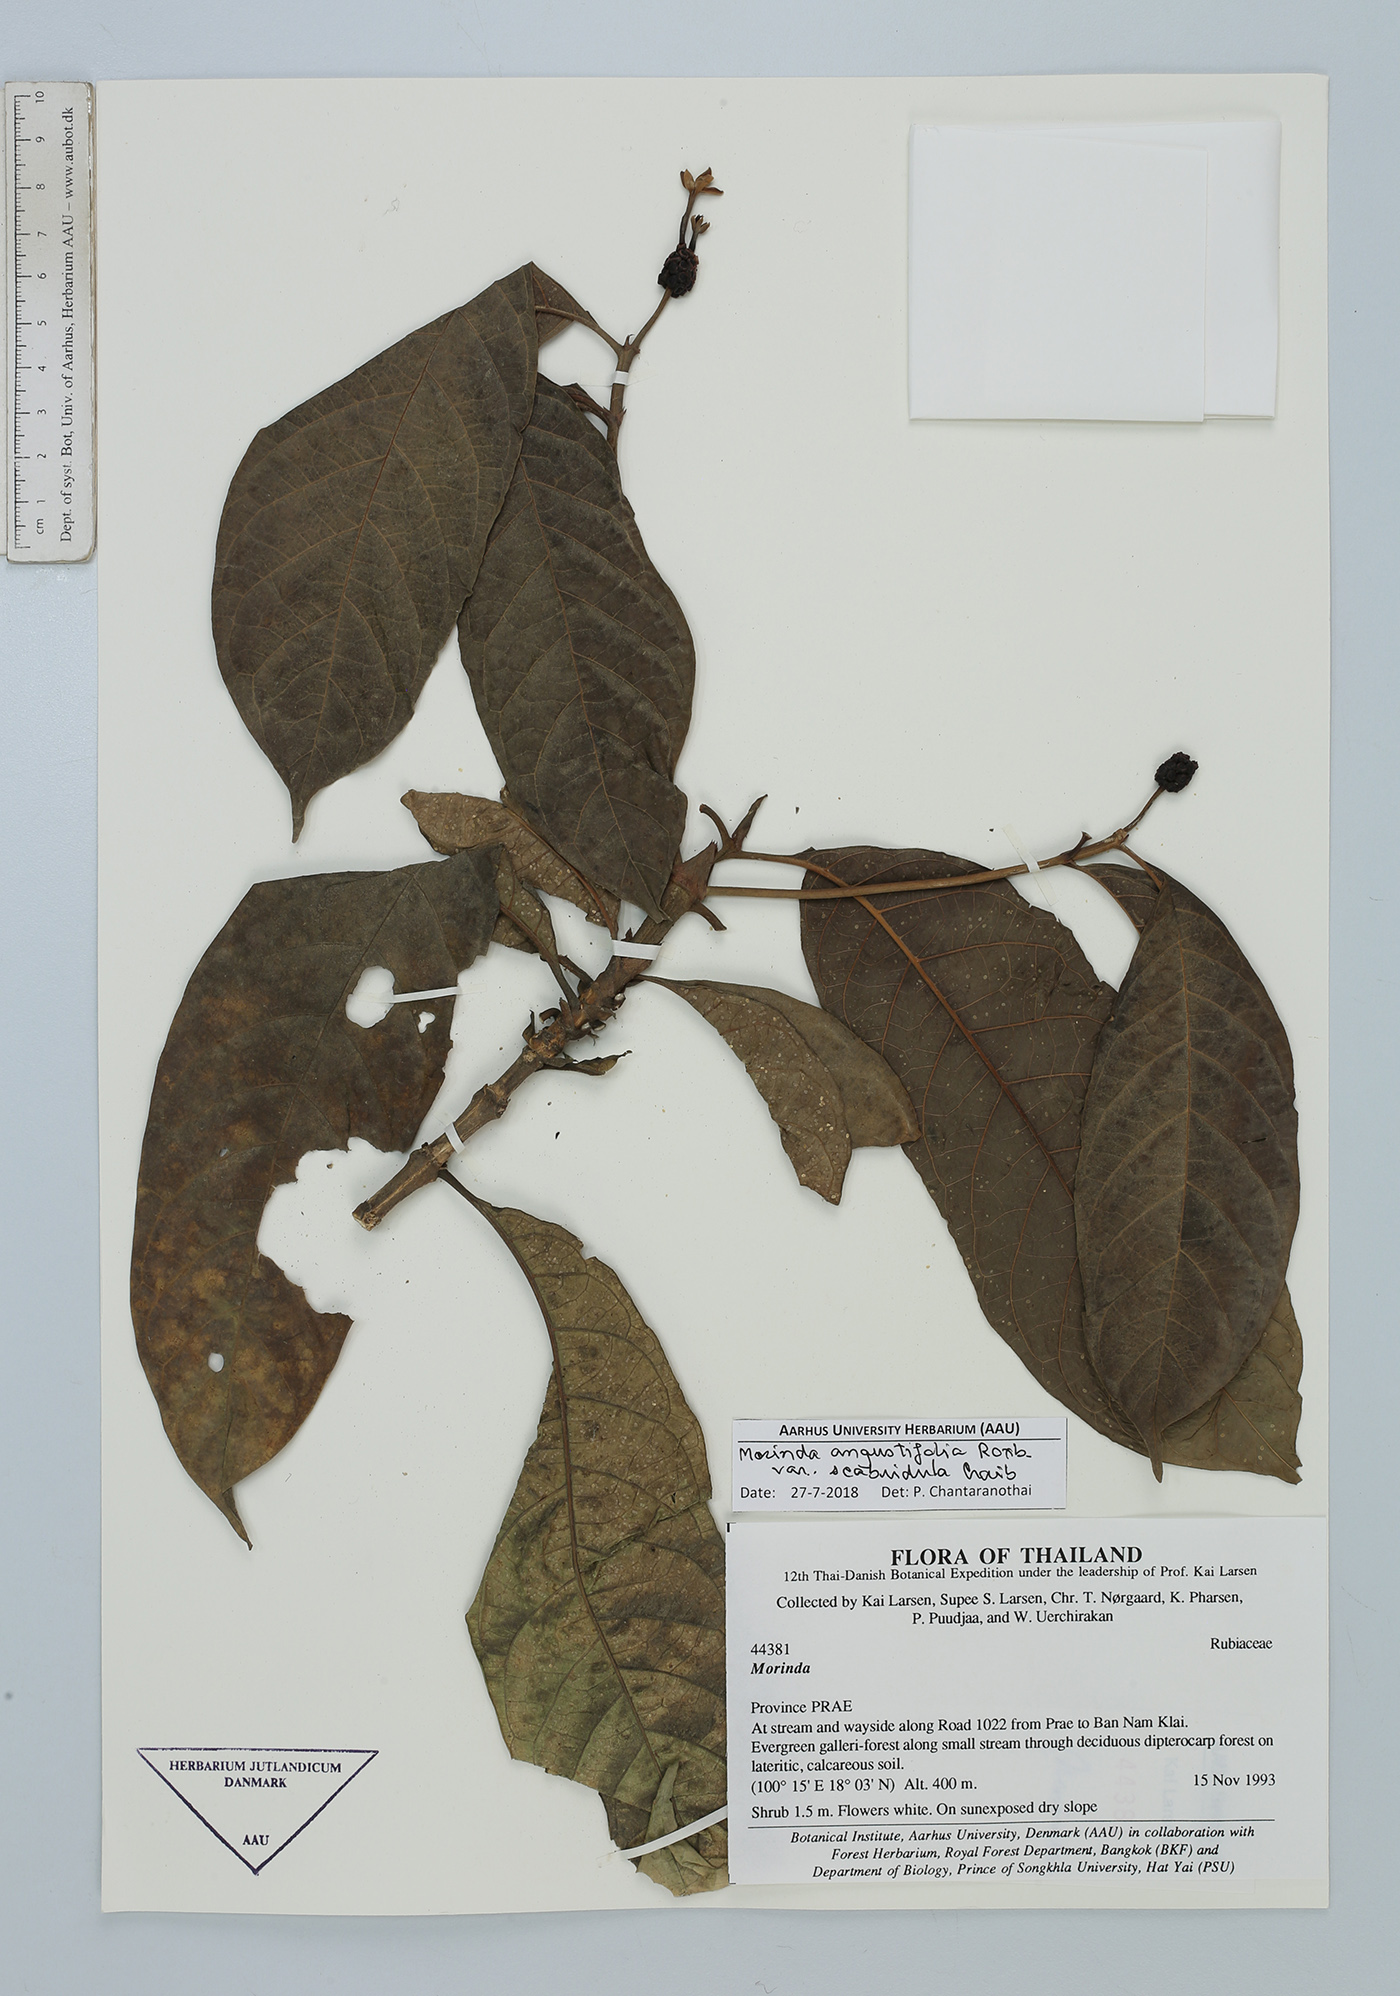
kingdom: Plantae
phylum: Tracheophyta
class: Magnoliopsida
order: Gentianales
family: Rubiaceae
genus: Morinda
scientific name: Morinda angustifolia
